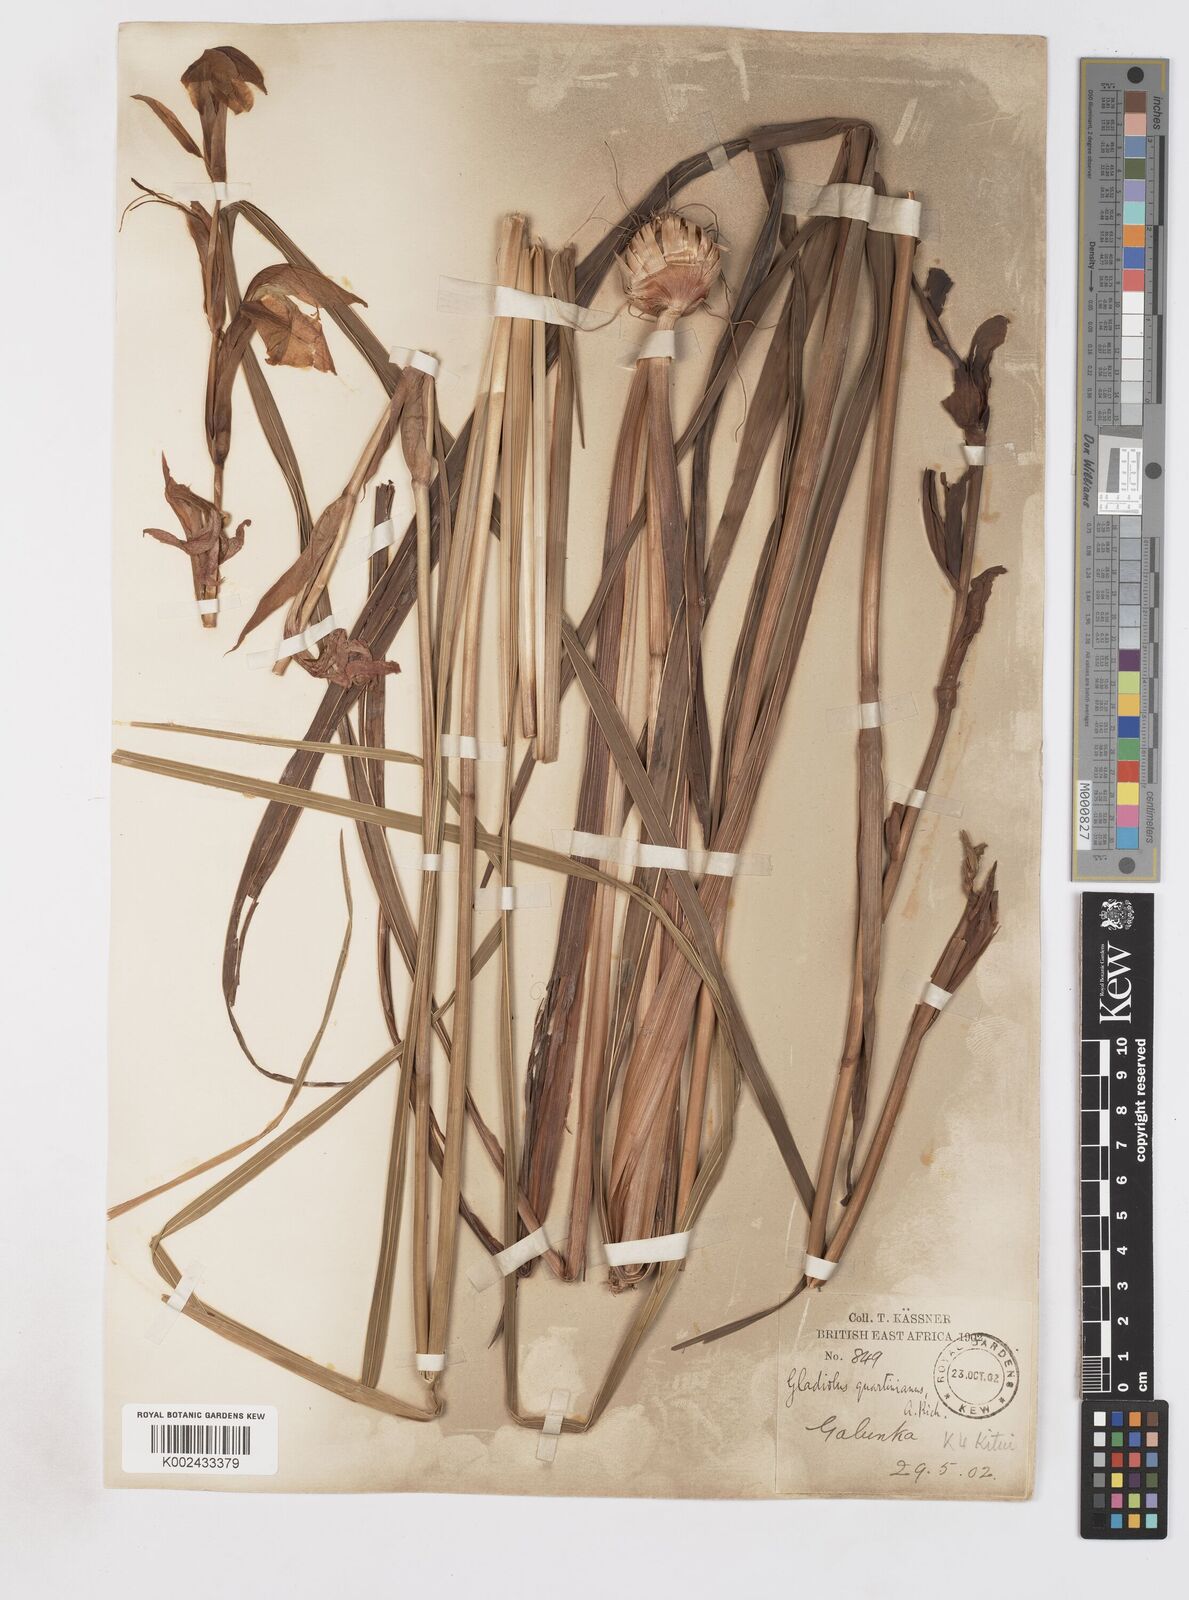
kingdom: Plantae
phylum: Tracheophyta
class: Liliopsida
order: Asparagales
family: Iridaceae
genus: Gladiolus
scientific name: Gladiolus dalenii
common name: Cornflag
